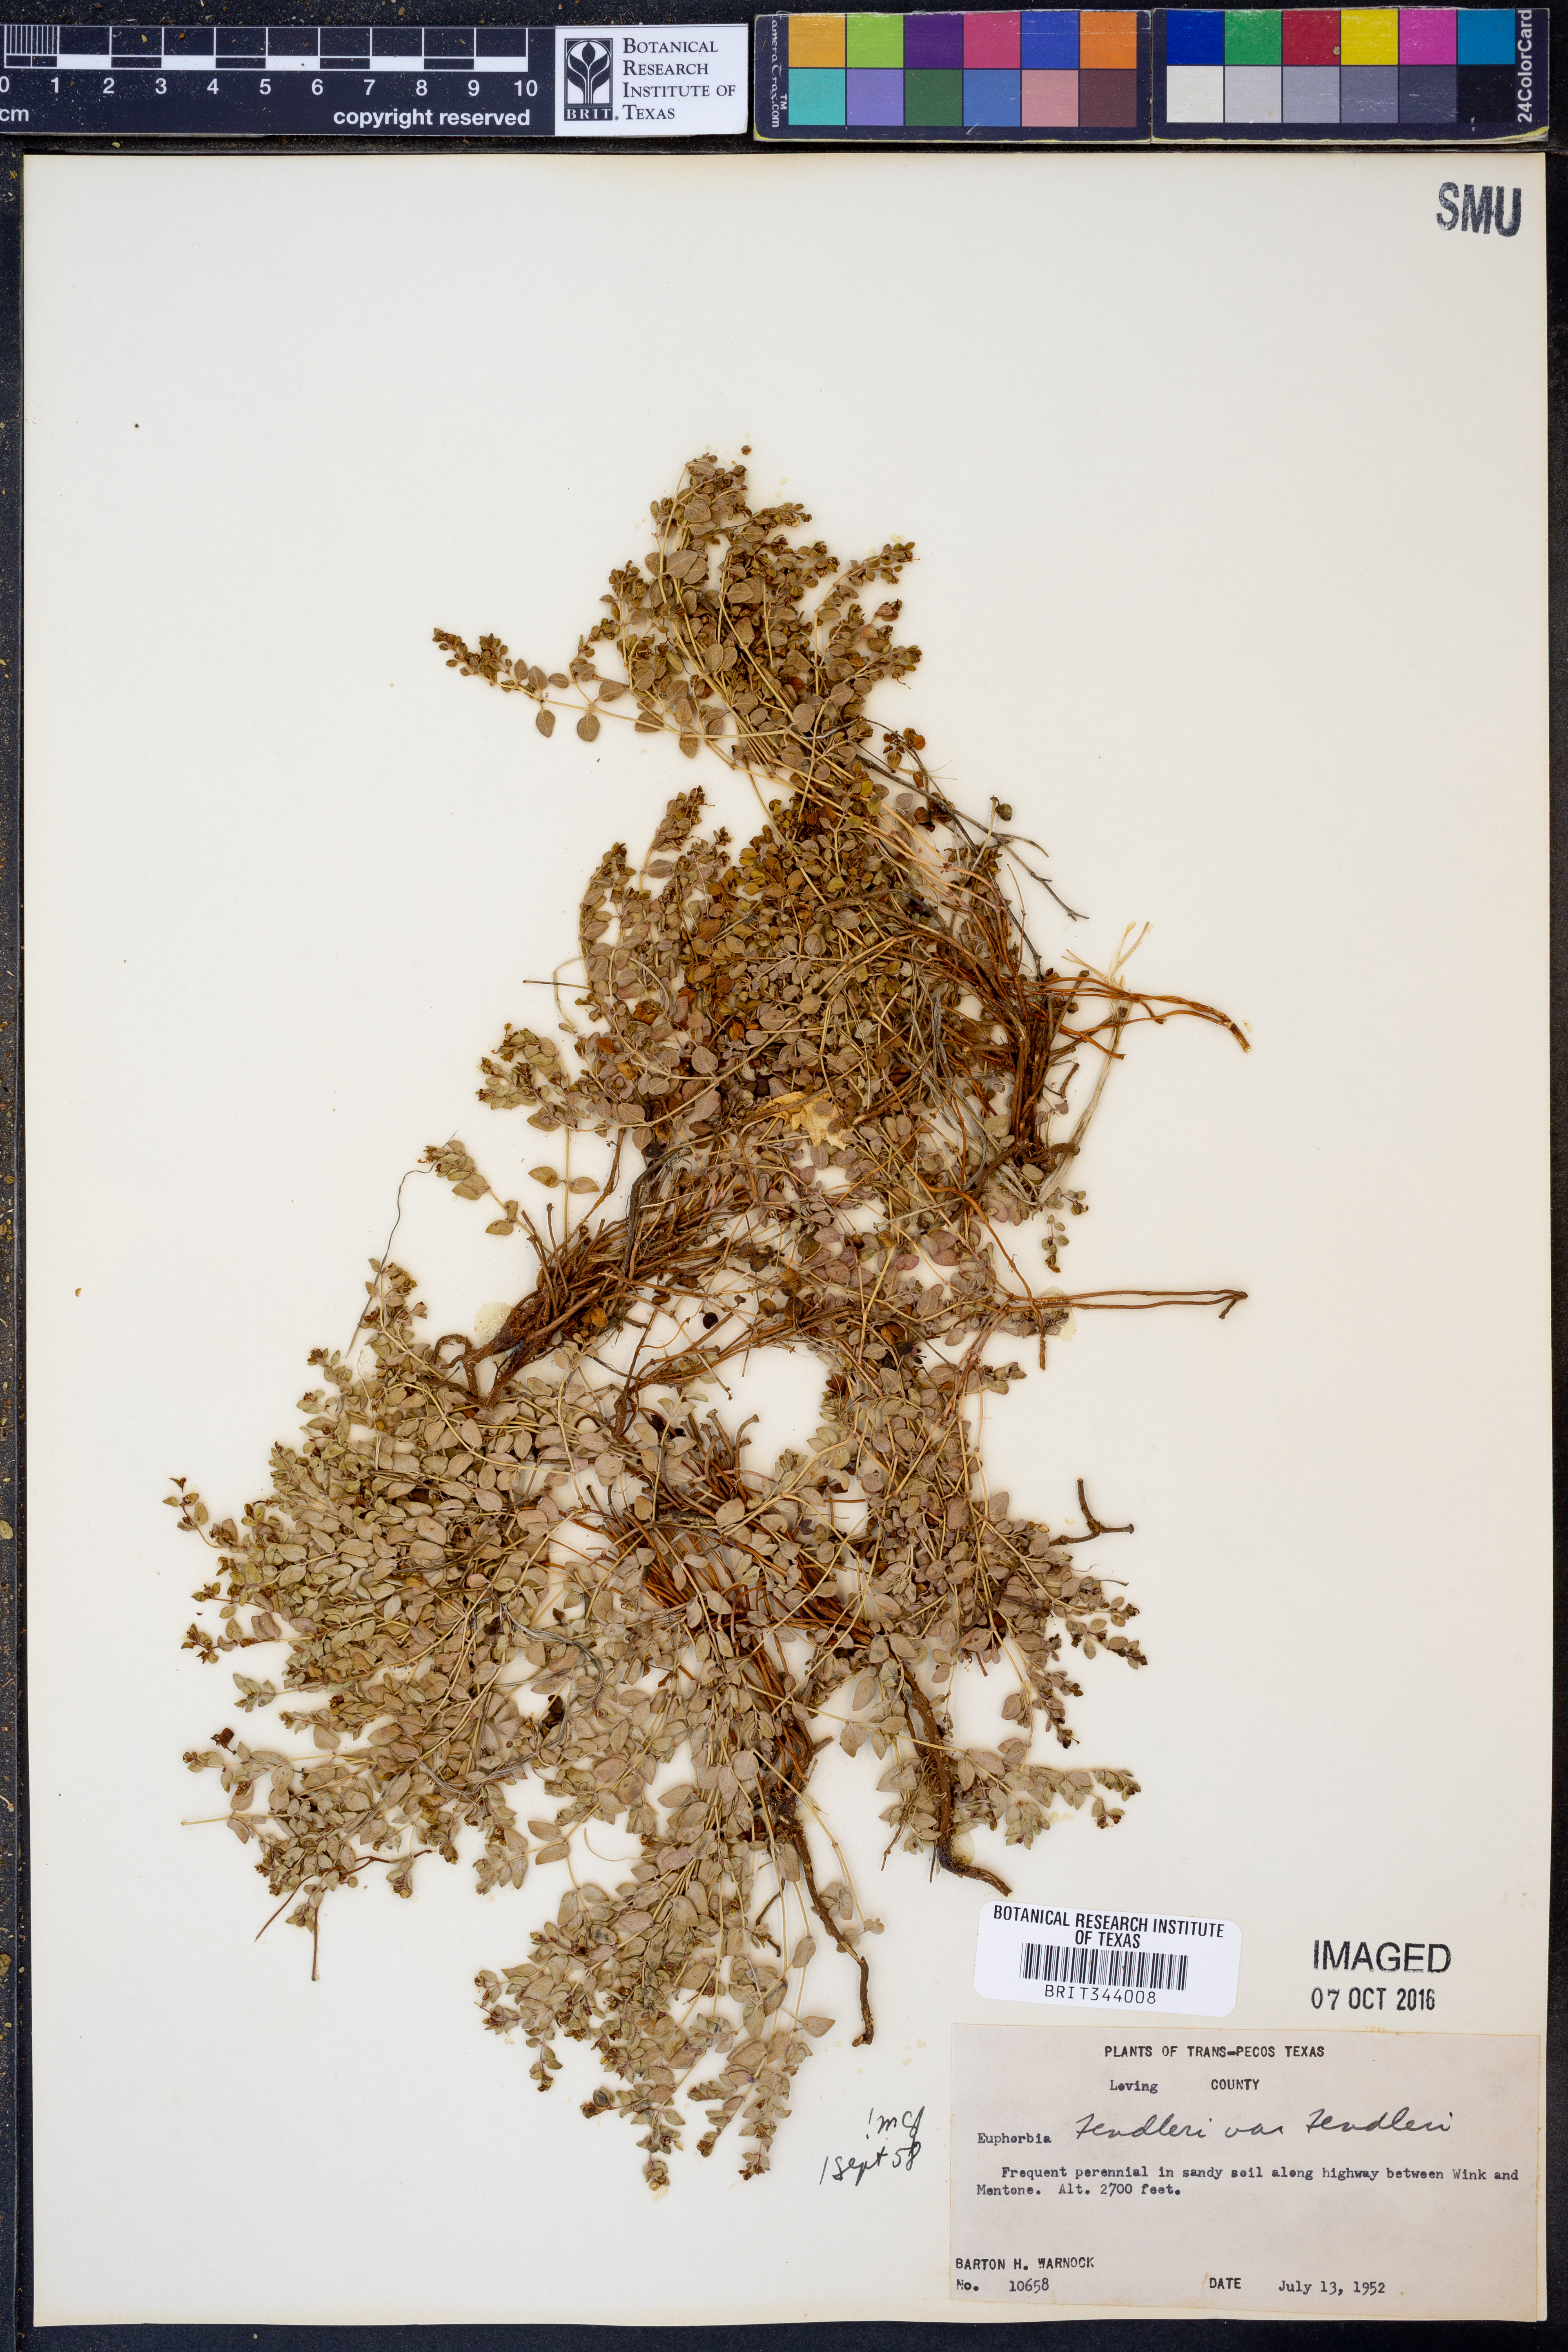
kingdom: Plantae
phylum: Tracheophyta
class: Magnoliopsida
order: Malpighiales
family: Euphorbiaceae
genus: Euphorbia
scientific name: Euphorbia fendleri
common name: Fendler's euphorbia
